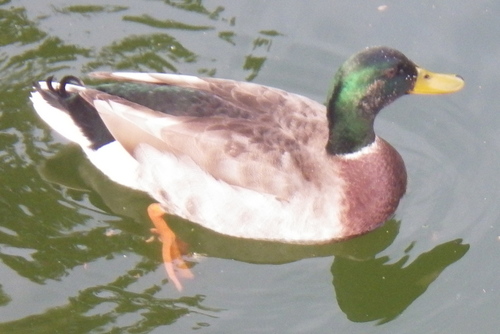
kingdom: Animalia
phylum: Chordata
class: Aves
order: Anseriformes
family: Anatidae
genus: Anas
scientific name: Anas platyrhynchos
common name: Mallard
